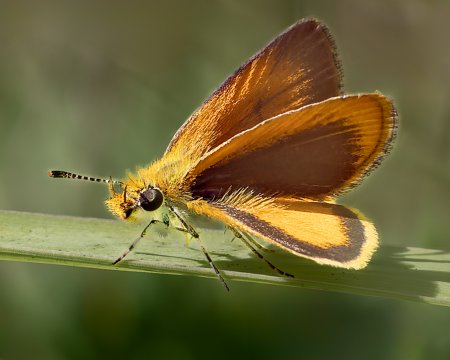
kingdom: Animalia
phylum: Arthropoda
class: Insecta
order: Lepidoptera
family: Hesperiidae
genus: Ancyloxypha
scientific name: Ancyloxypha numitor
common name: Least Skipper
